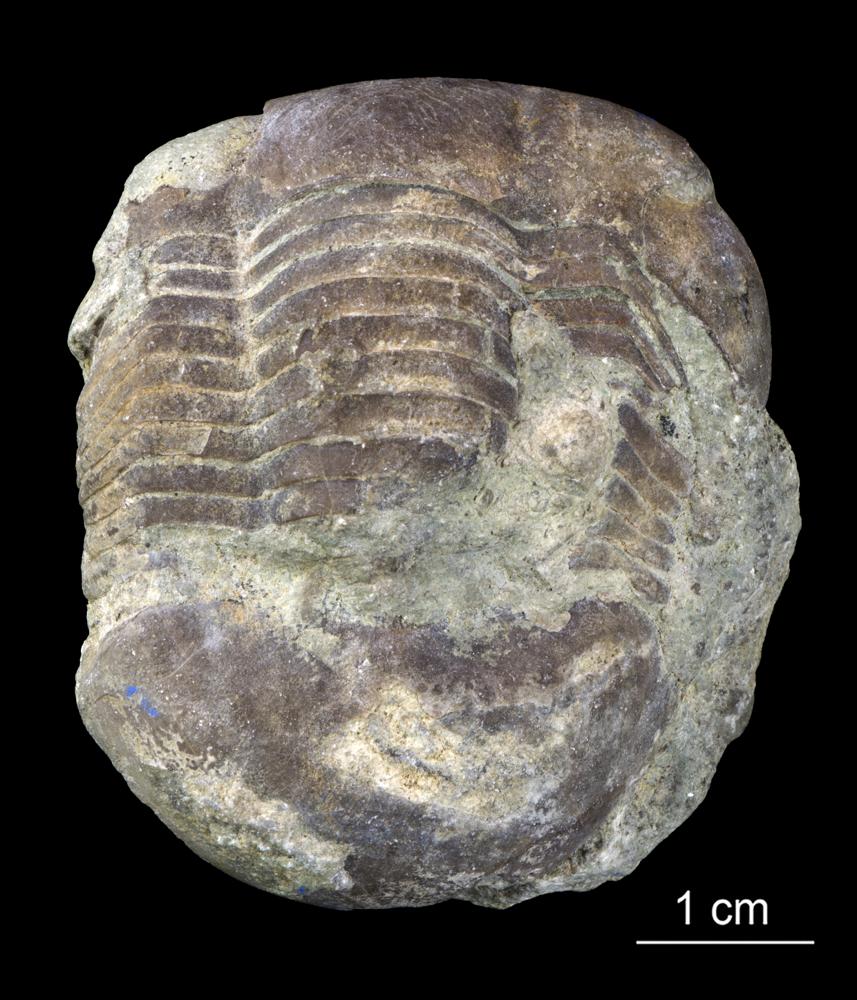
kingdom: Animalia
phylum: Arthropoda
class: Trilobita
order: Corynexochida
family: Illaenidae
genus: Illaenus
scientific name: Illaenus crassicauda
